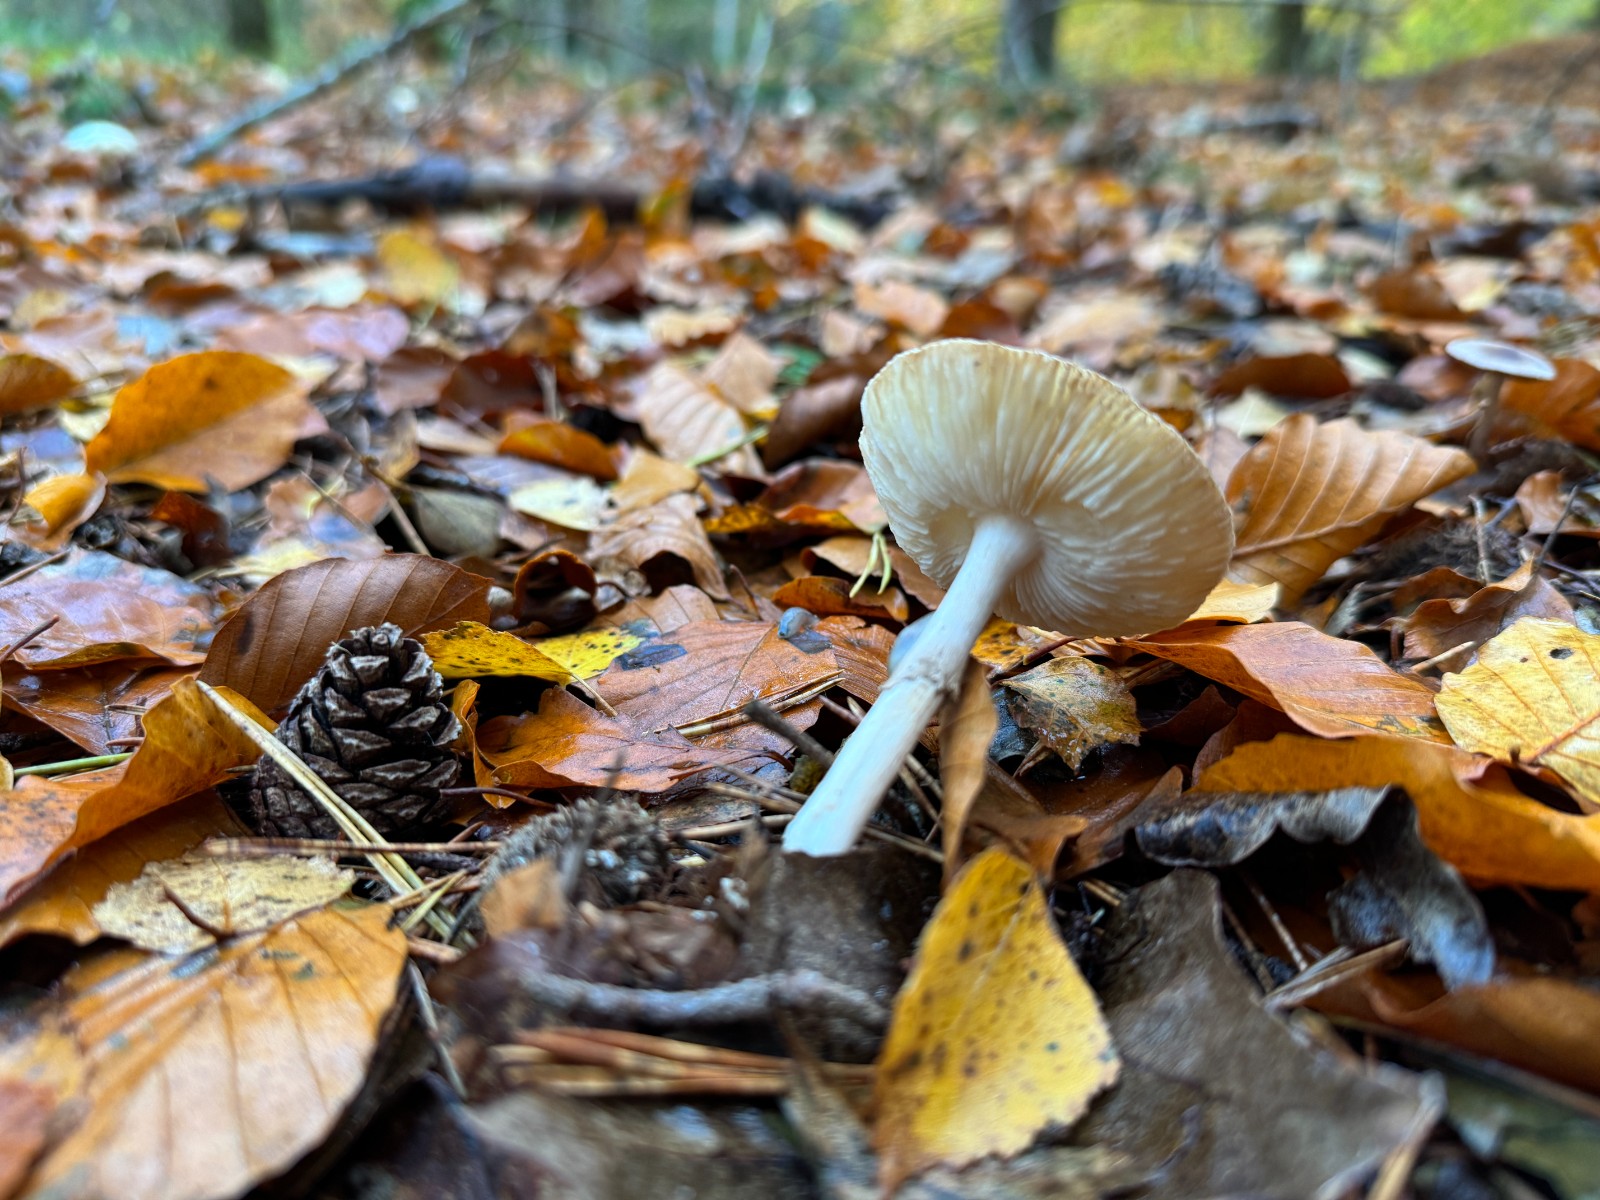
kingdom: Fungi
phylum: Basidiomycota
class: Agaricomycetes
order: Agaricales
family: Amanitaceae
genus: Amanita
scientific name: Amanita citrina
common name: kugleknoldet fluesvamp
